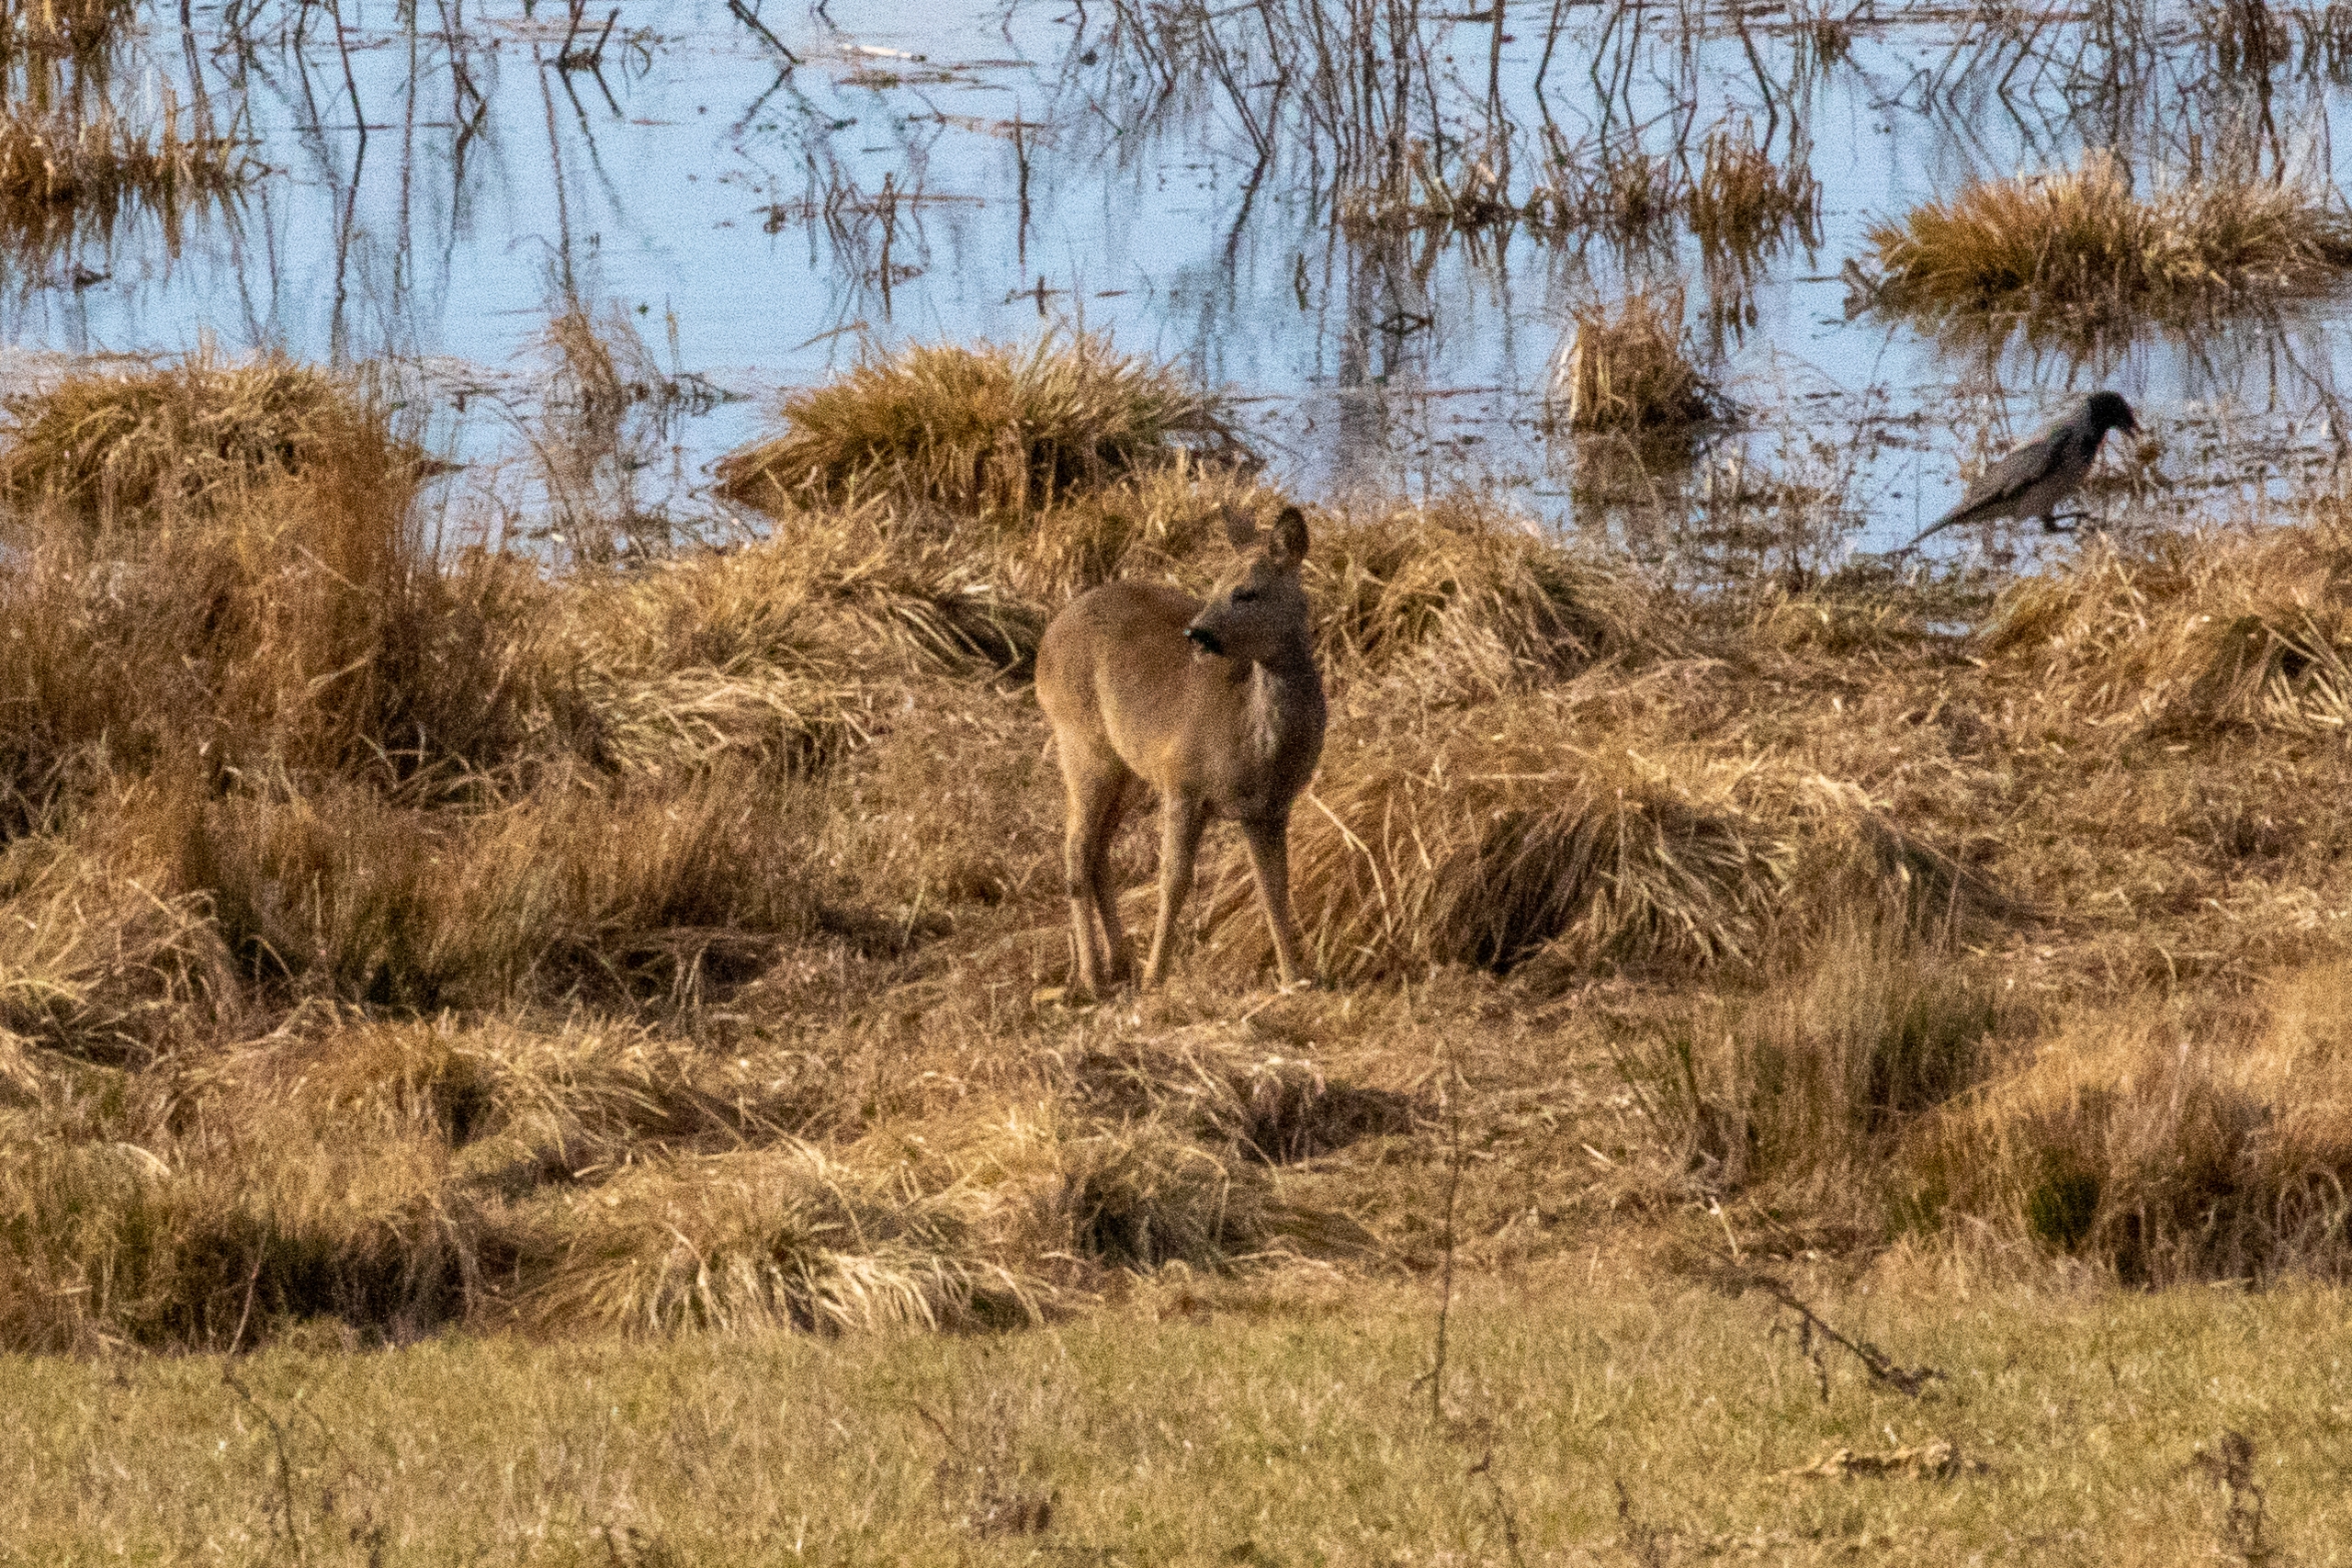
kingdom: Animalia
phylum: Chordata
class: Mammalia
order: Artiodactyla
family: Cervidae
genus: Capreolus
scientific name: Capreolus capreolus
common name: Rådyr
